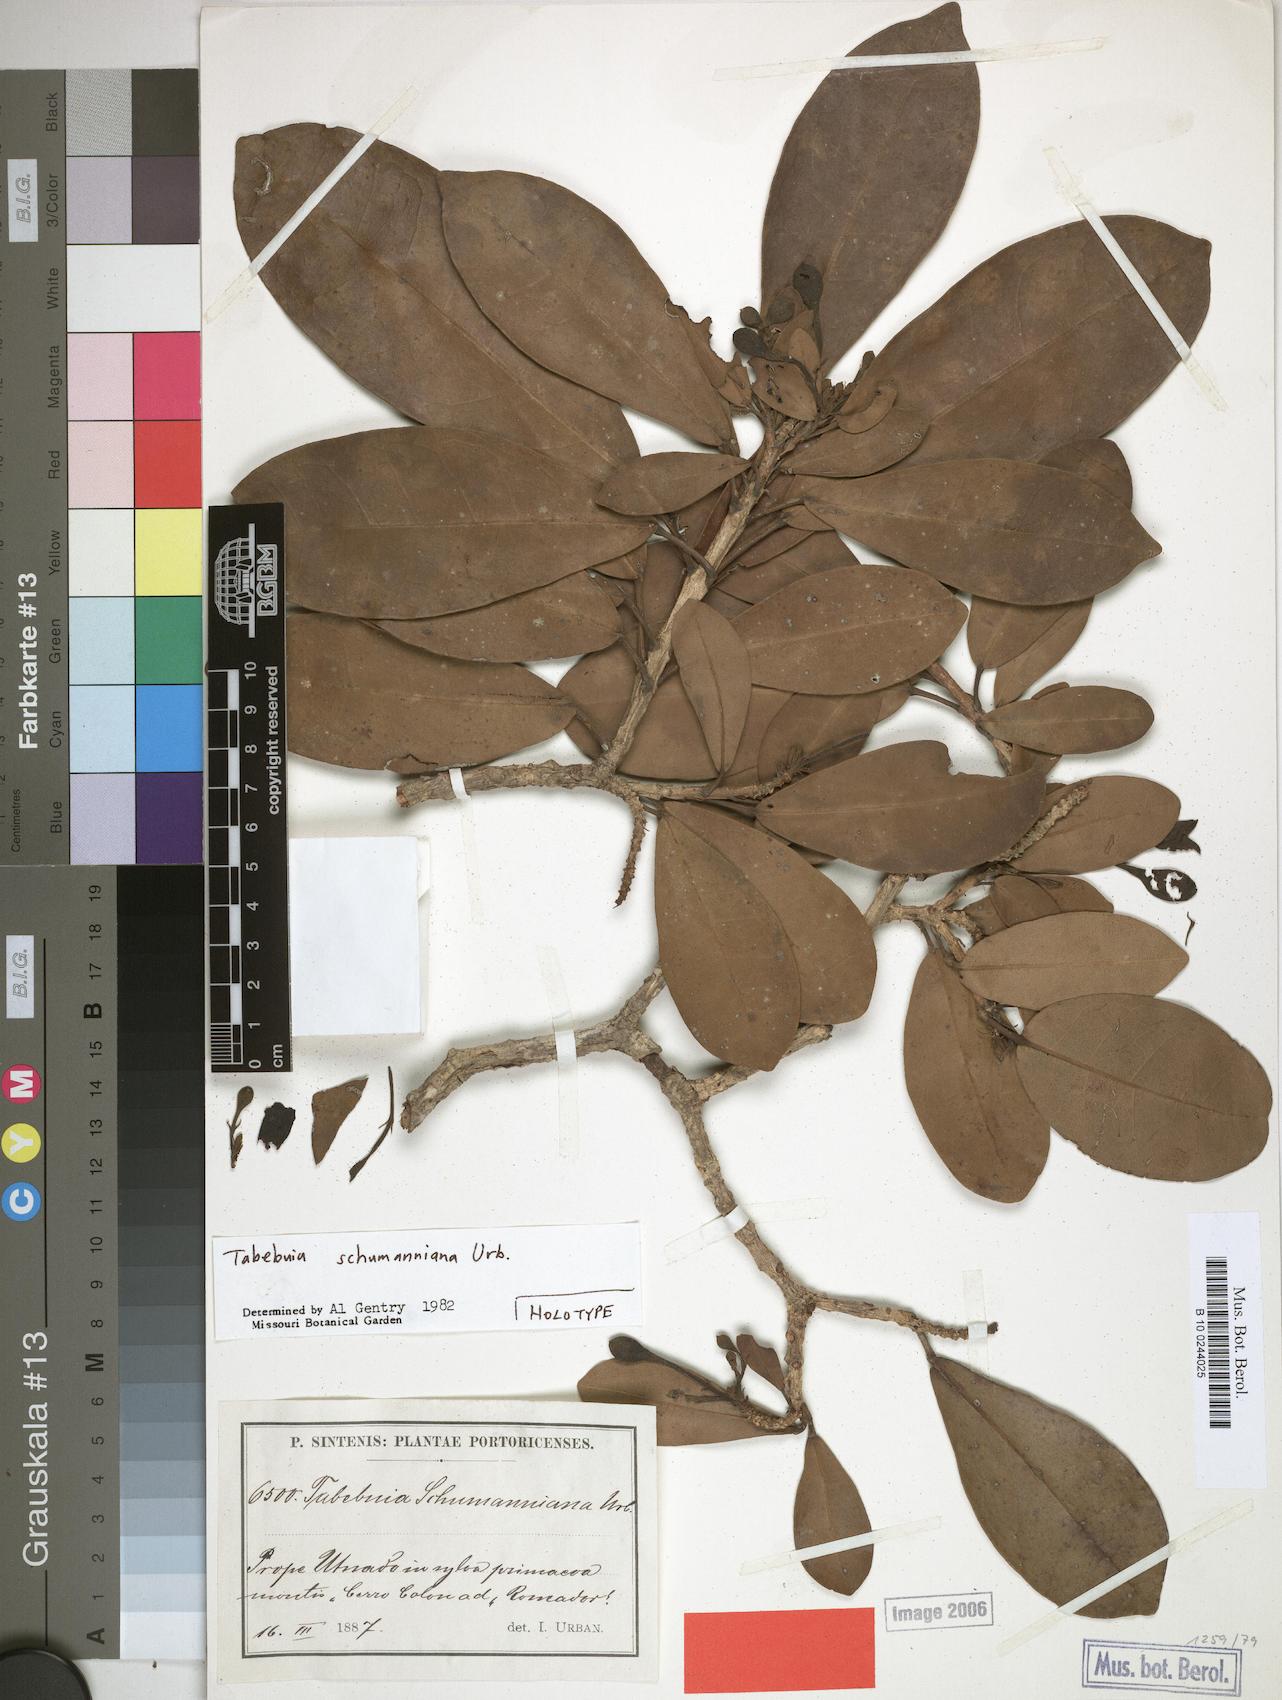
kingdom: Plantae
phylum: Tracheophyta
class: Magnoliopsida
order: Lamiales
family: Bignoniaceae
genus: Tabebuia
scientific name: Tabebuia schumanniana
